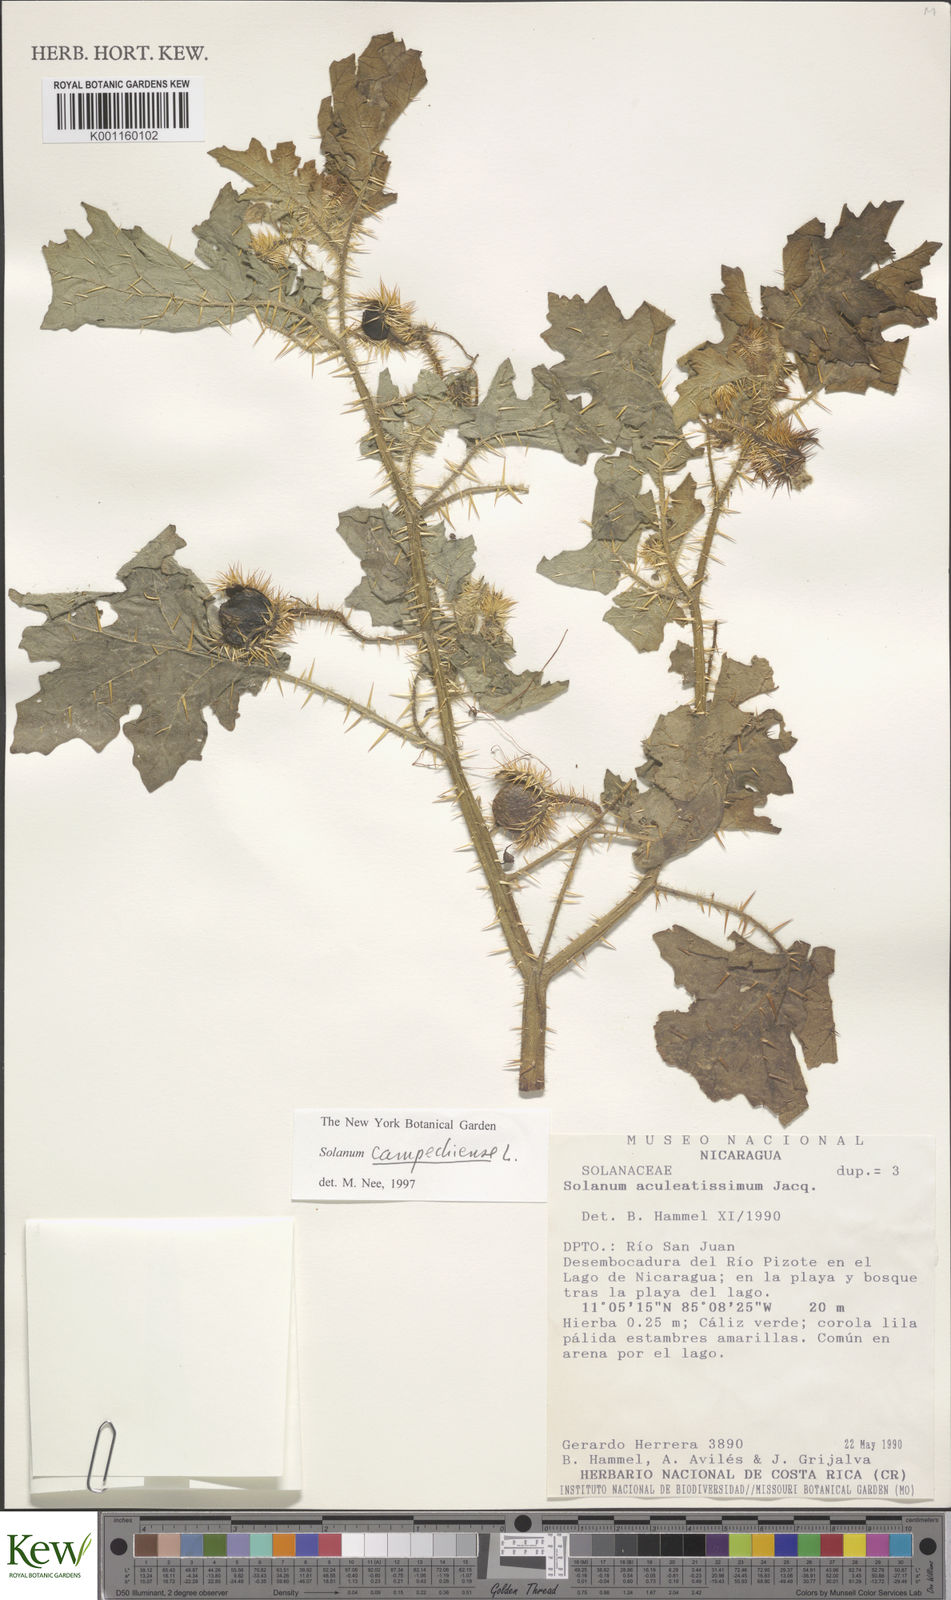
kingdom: Plantae
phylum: Tracheophyta
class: Magnoliopsida
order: Solanales
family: Solanaceae
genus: Solanum
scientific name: Solanum campechiense
